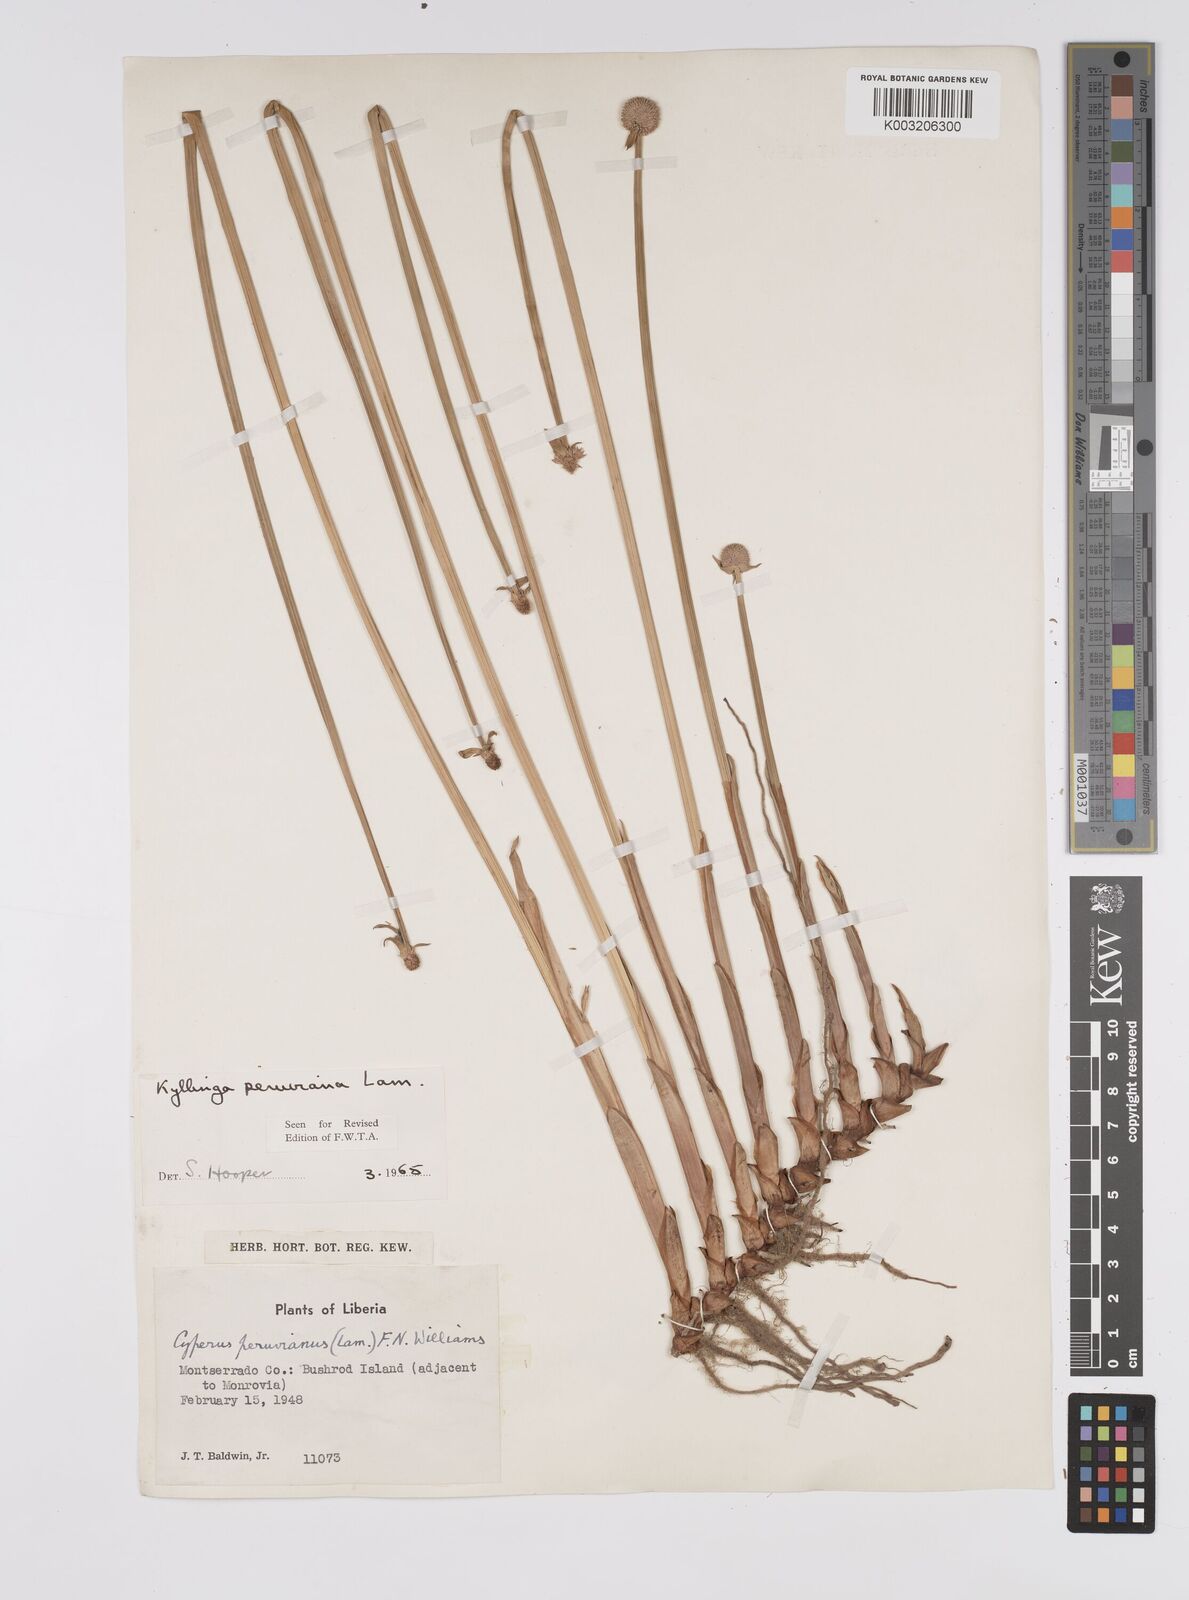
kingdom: Plantae
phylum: Tracheophyta
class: Liliopsida
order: Poales
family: Cyperaceae
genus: Cyperus
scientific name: Cyperus obtusatus
